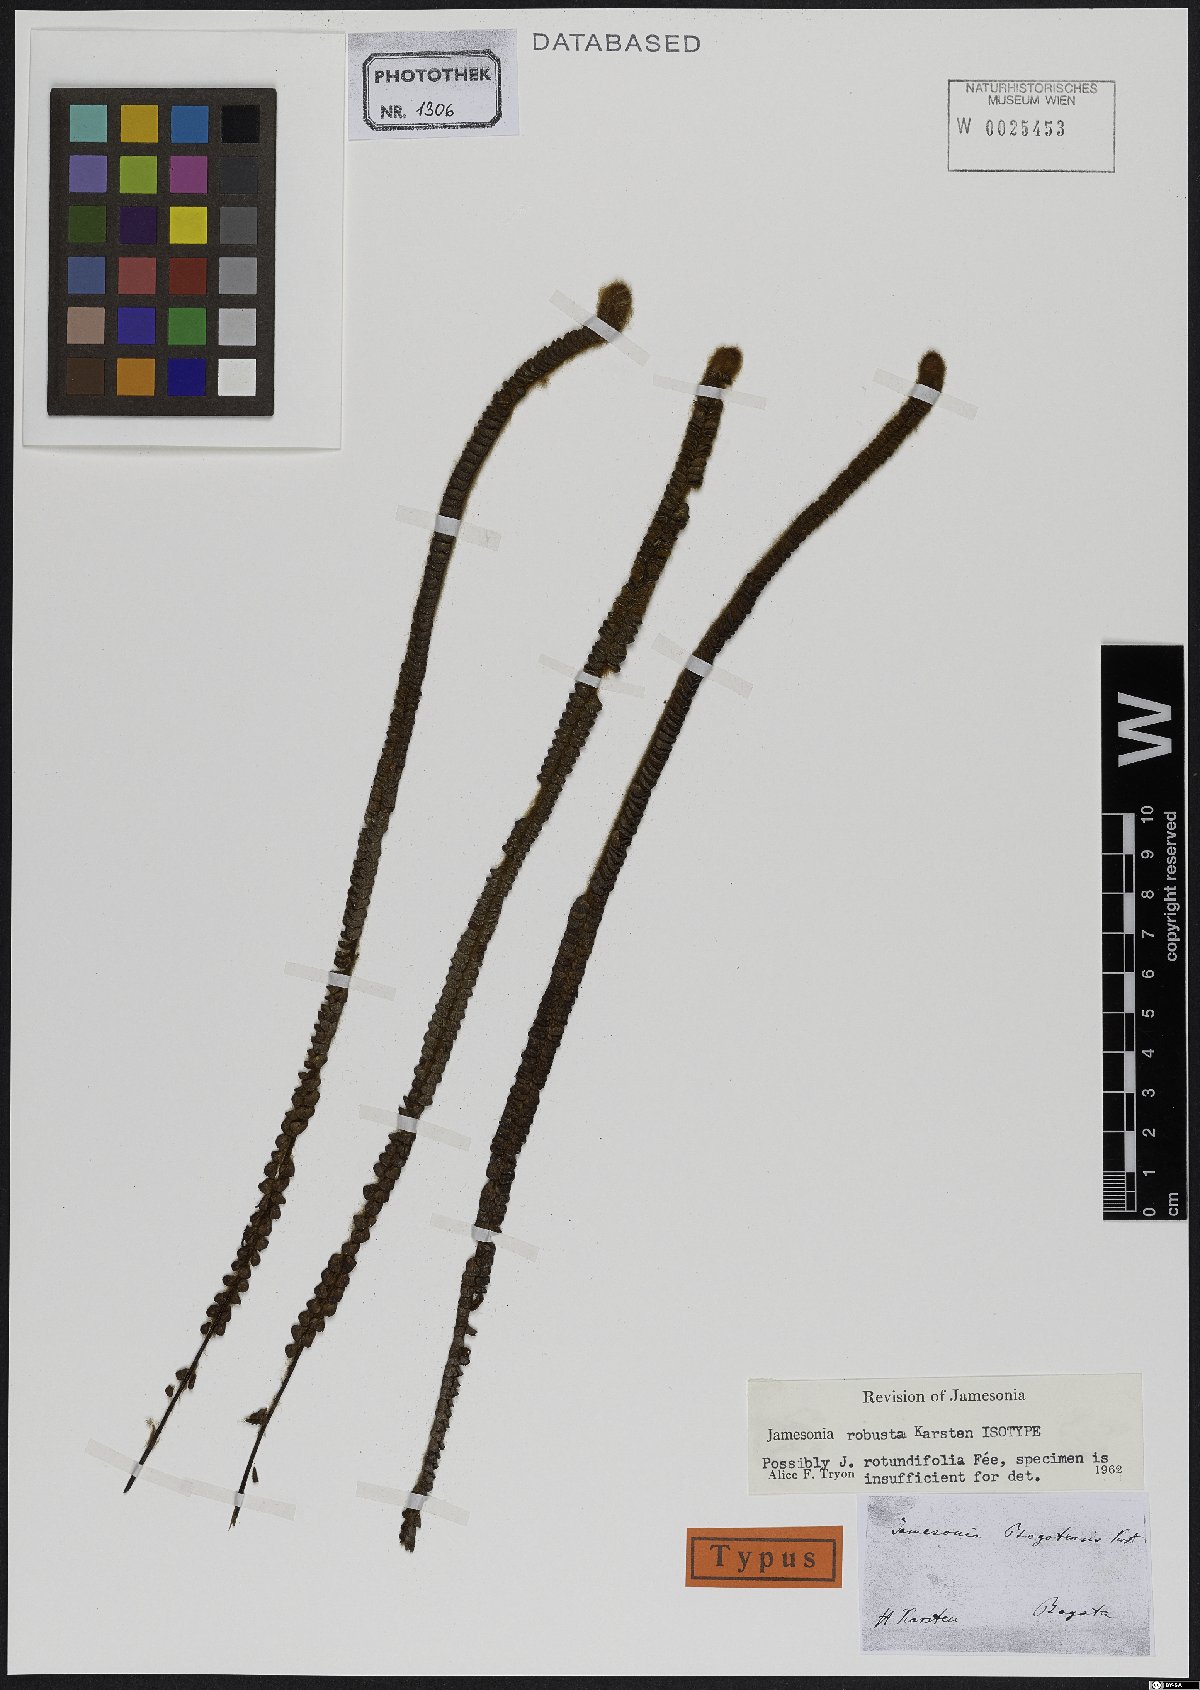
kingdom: Plantae
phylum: Tracheophyta
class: Polypodiopsida
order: Polypodiales
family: Pteridaceae
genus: Jamesonia
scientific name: Jamesonia robusta
